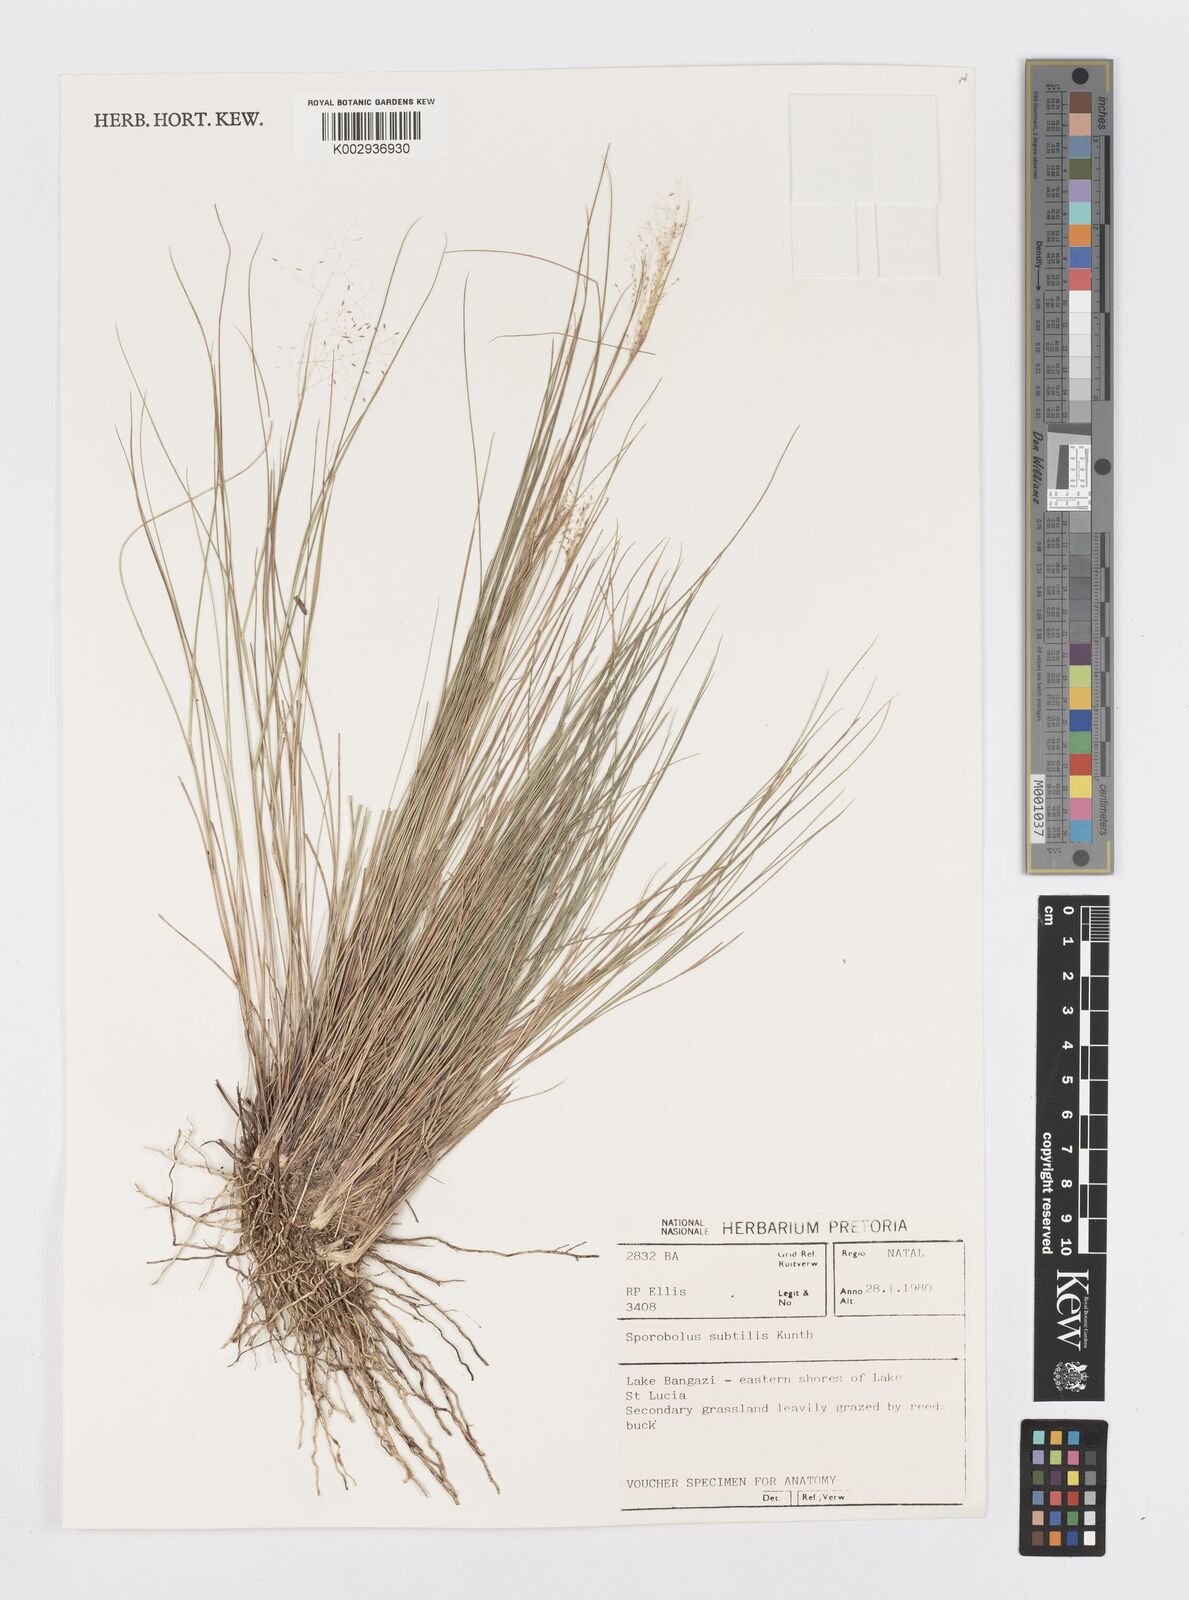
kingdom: Plantae
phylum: Tracheophyta
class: Liliopsida
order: Poales
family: Poaceae
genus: Sporobolus
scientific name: Sporobolus subtilis
